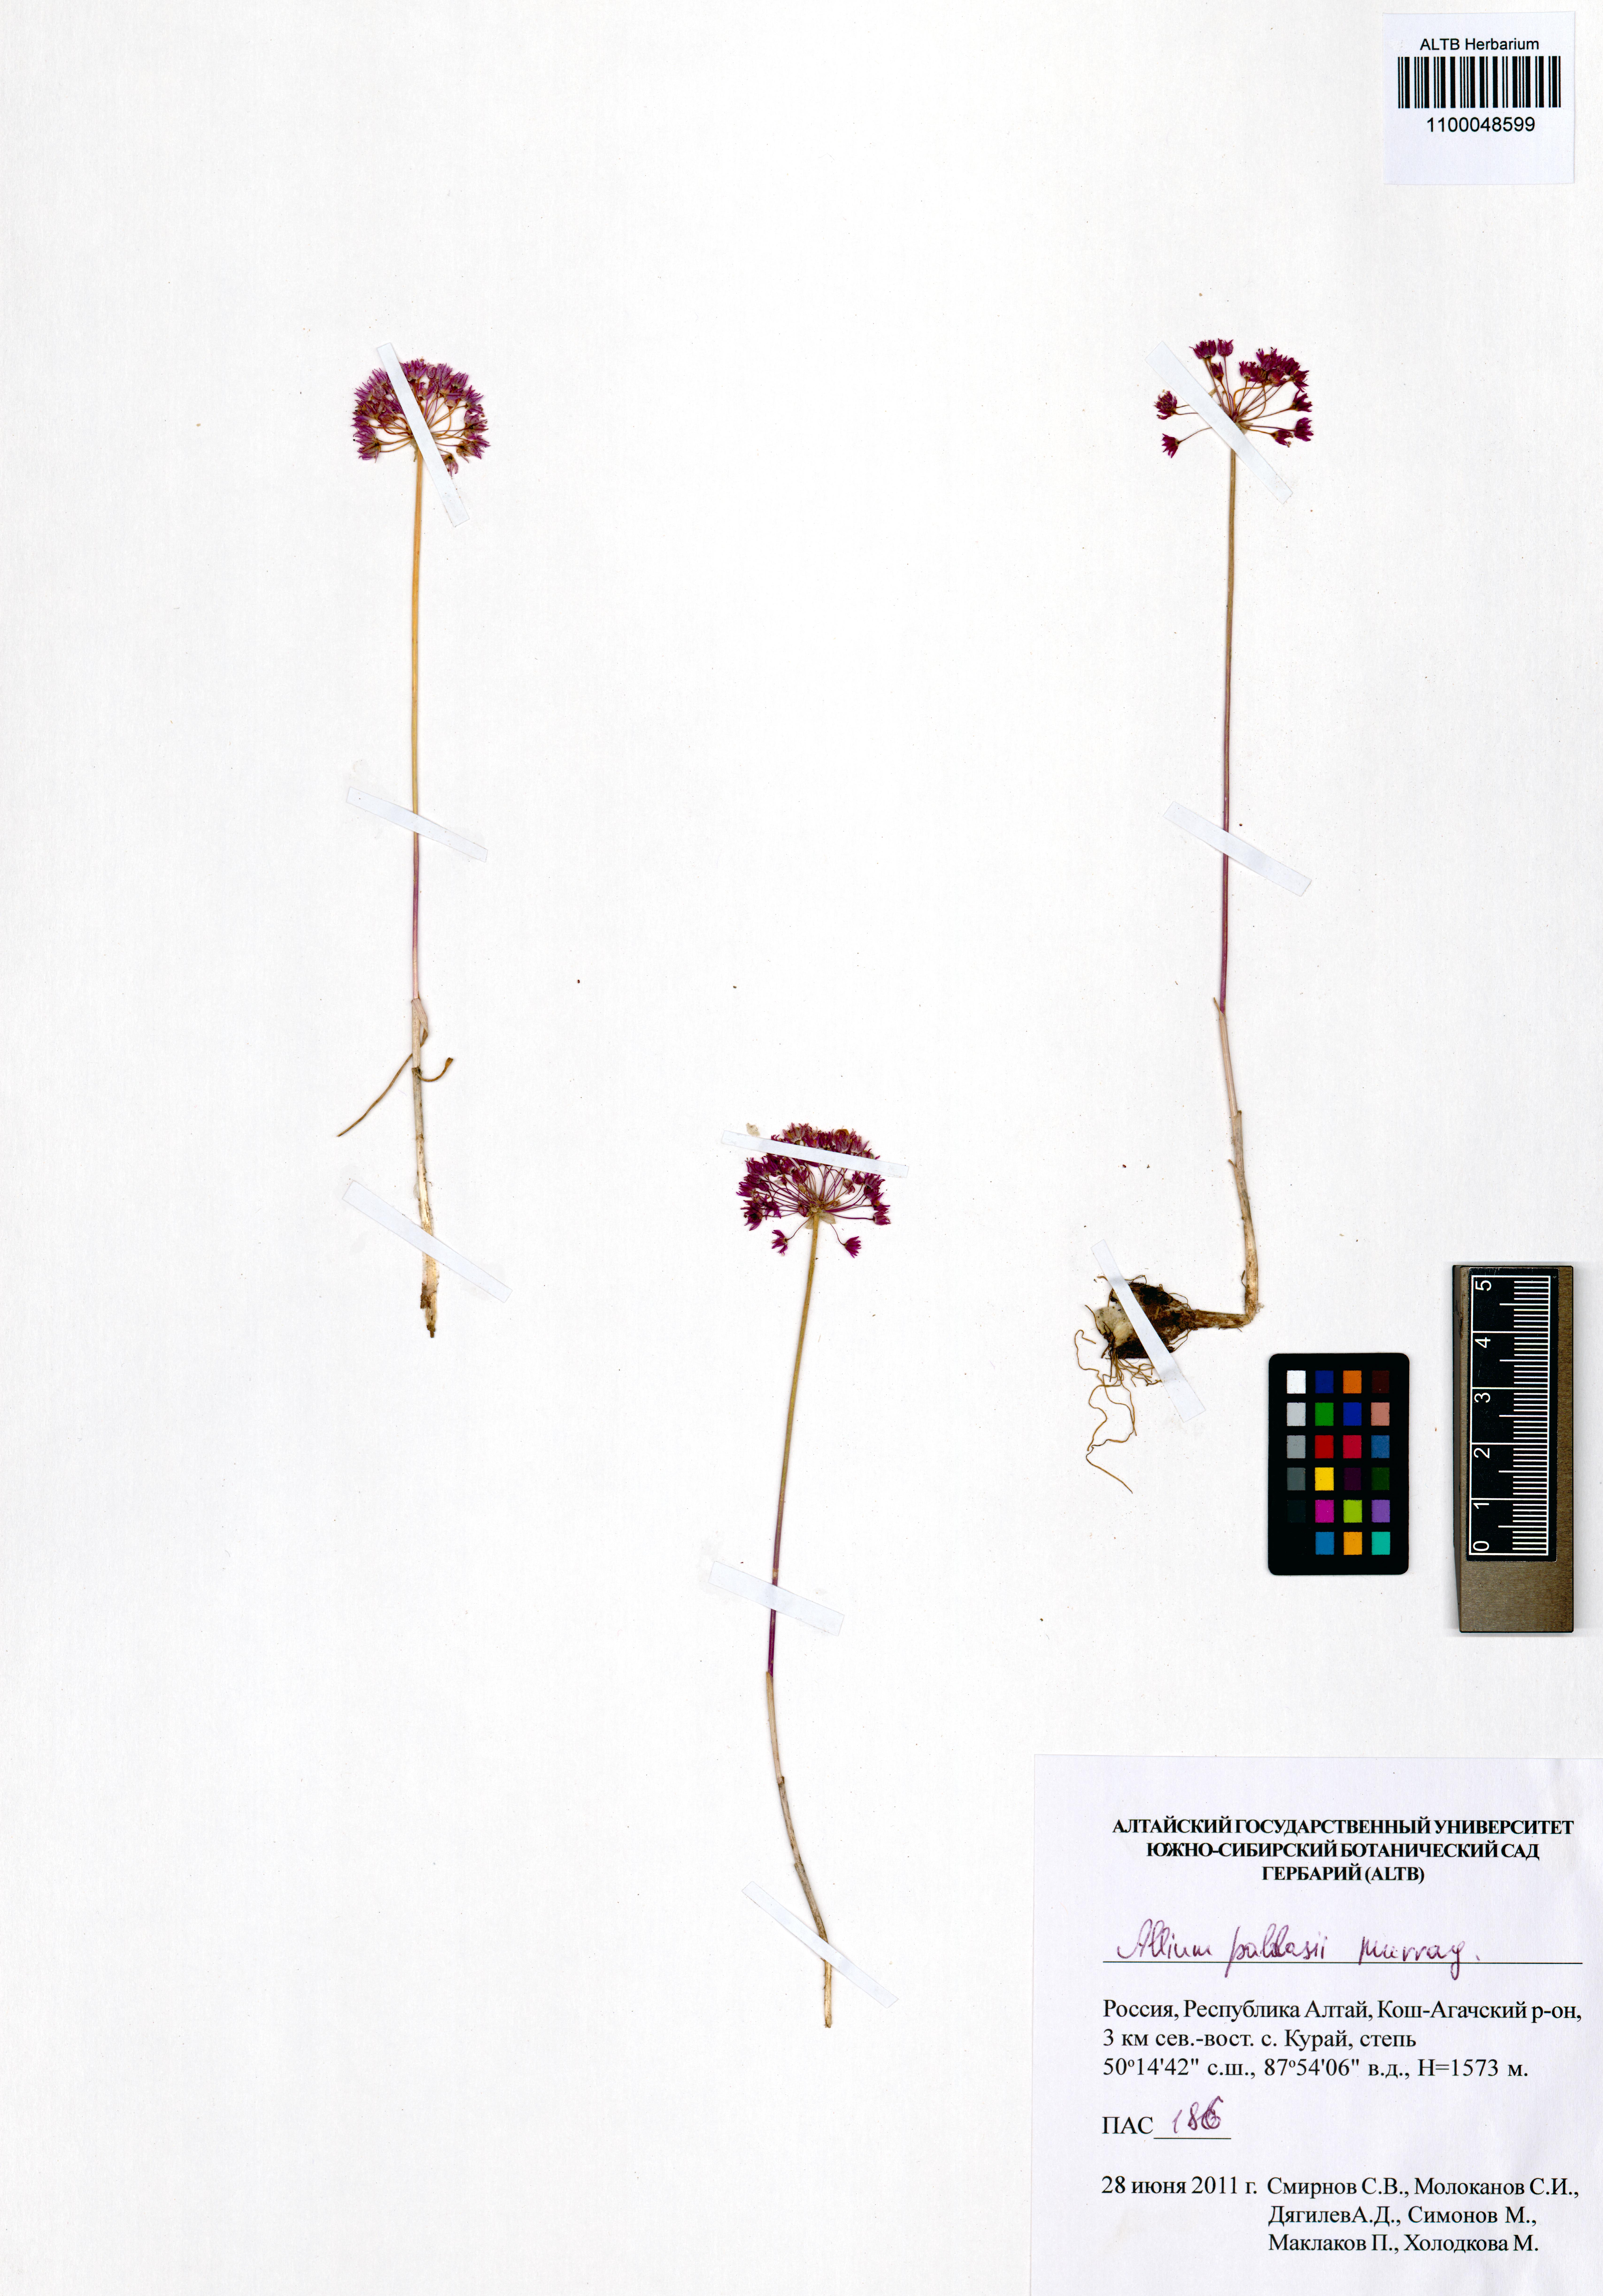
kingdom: Plantae
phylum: Tracheophyta
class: Liliopsida
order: Asparagales
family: Amaryllidaceae
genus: Allium
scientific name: Allium pallasii
